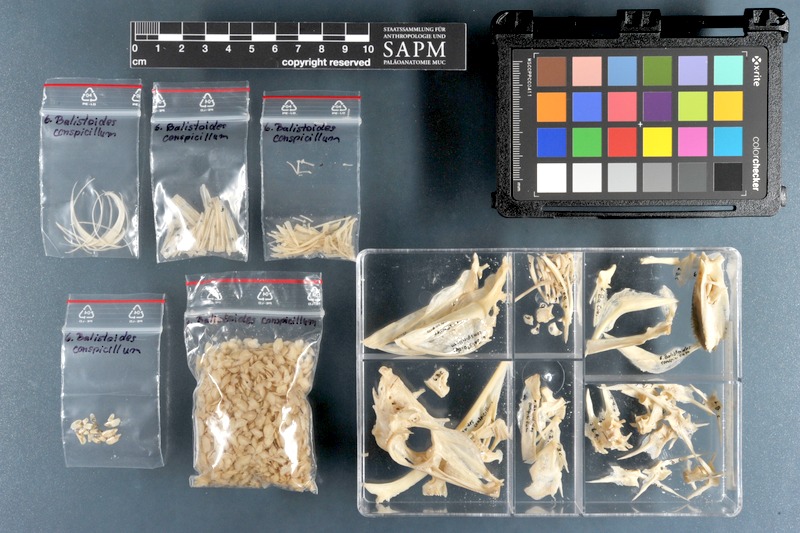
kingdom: Animalia
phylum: Chordata
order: Tetraodontiformes
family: Balistidae
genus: Balistoides
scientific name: Balistoides conspicillum
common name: Clown triggerfish
